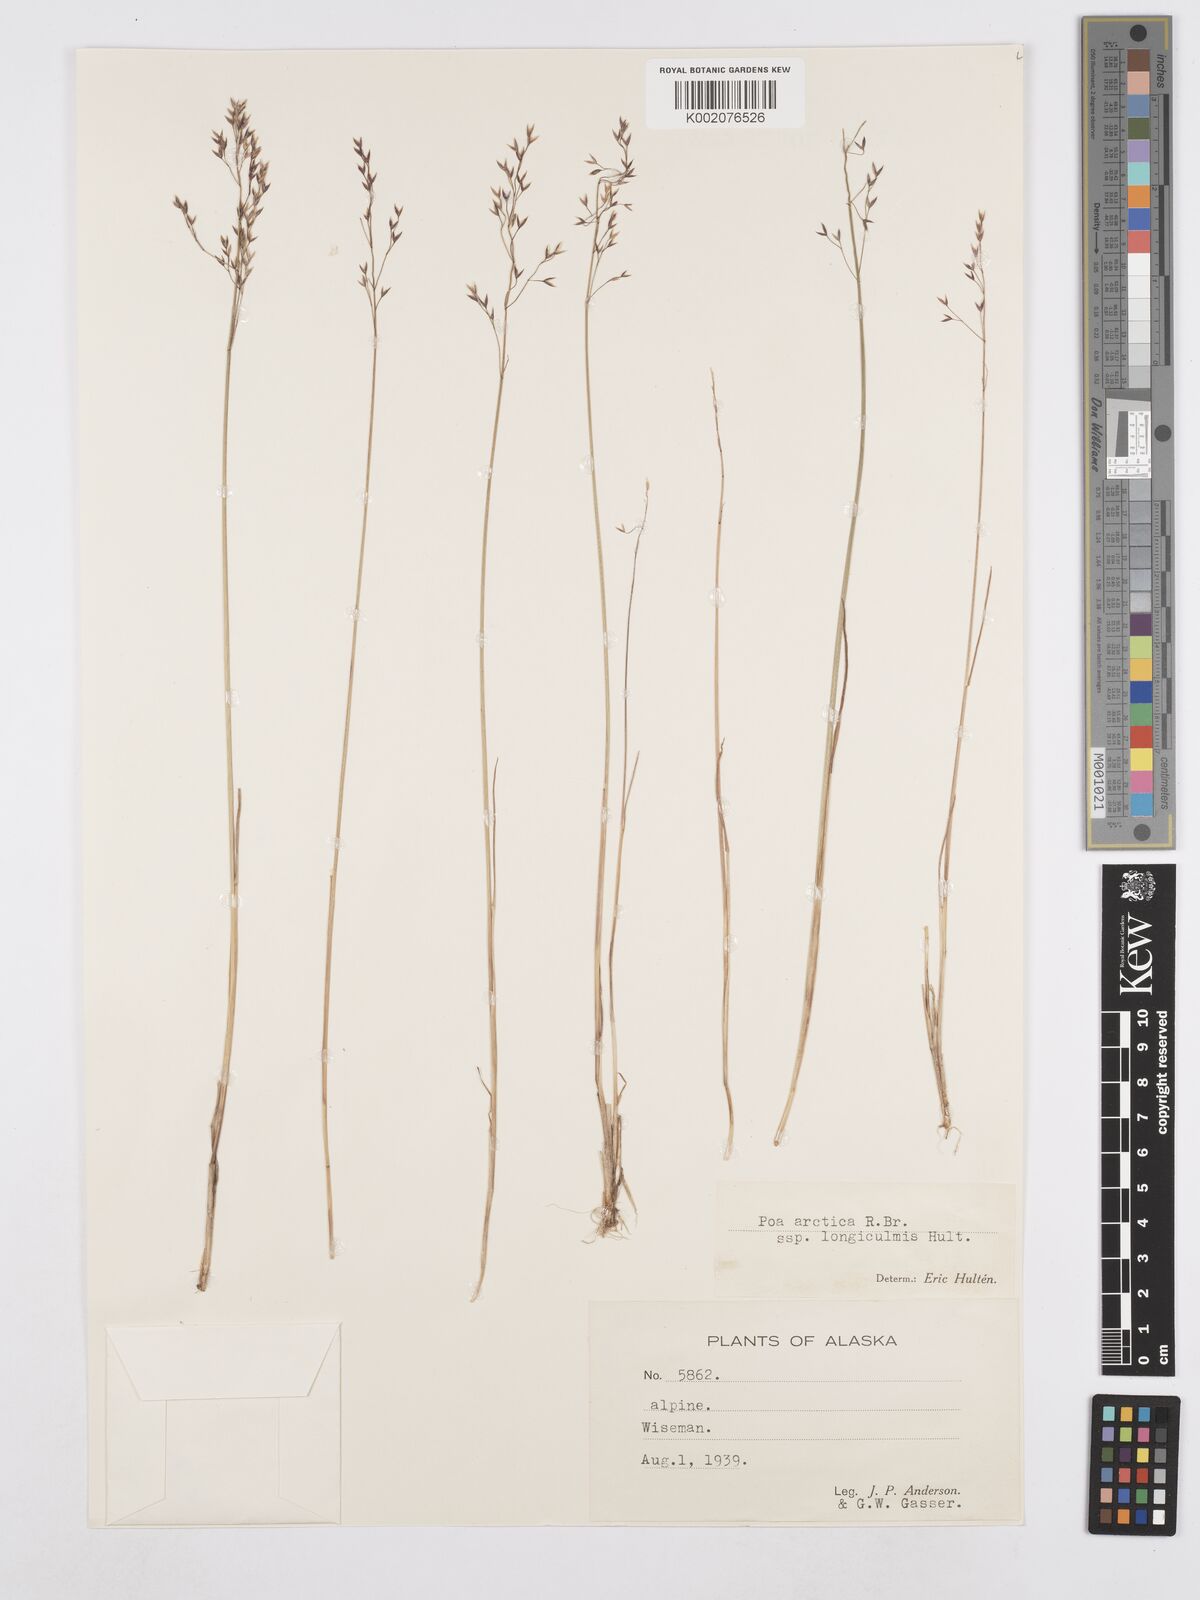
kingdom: Plantae
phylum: Tracheophyta
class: Liliopsida
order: Poales
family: Poaceae
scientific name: Poaceae
